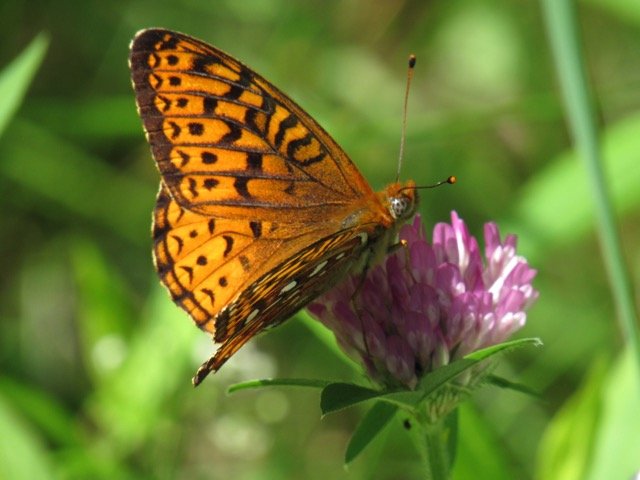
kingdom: Animalia
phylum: Arthropoda
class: Insecta
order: Lepidoptera
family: Nymphalidae
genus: Speyeria
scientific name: Speyeria atlantis
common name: Atlantis Fritillary
